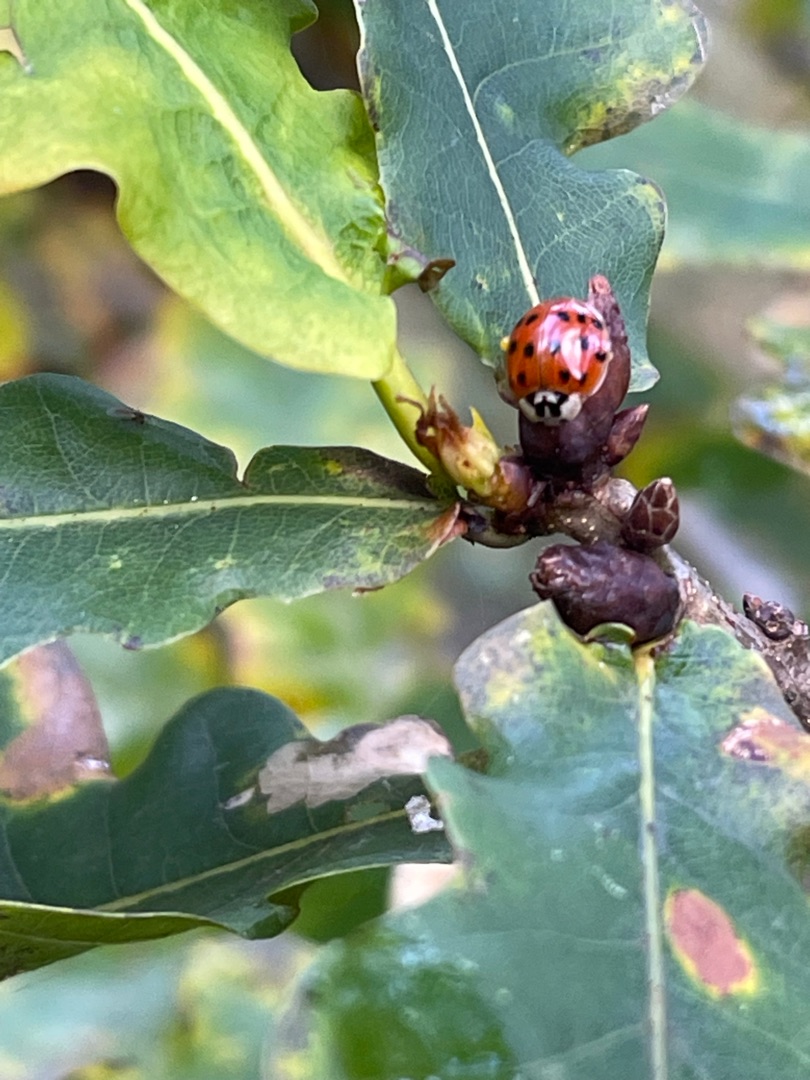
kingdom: Animalia
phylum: Arthropoda
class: Insecta
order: Coleoptera
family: Coccinellidae
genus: Harmonia
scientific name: Harmonia axyridis
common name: Harlekinmariehøne
